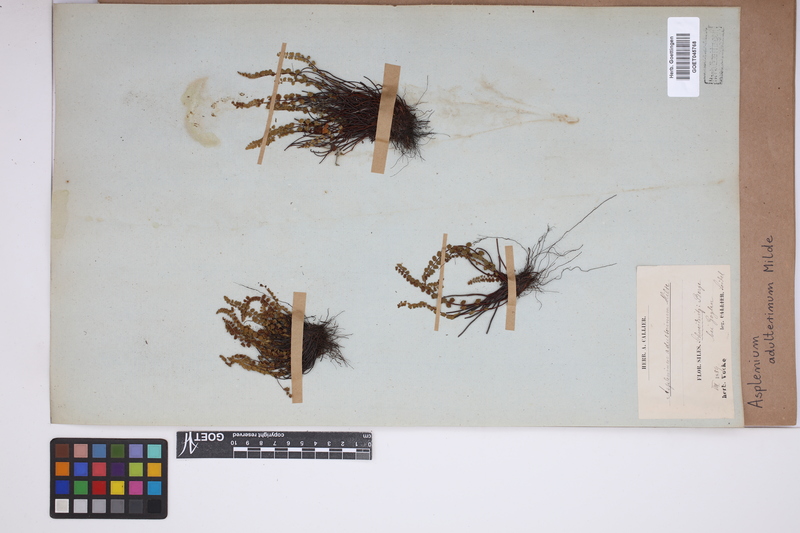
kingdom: Plantae
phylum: Tracheophyta
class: Polypodiopsida
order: Polypodiales
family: Aspleniaceae
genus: Asplenium
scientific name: Asplenium adulterinum
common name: Adulterated spleenwort
